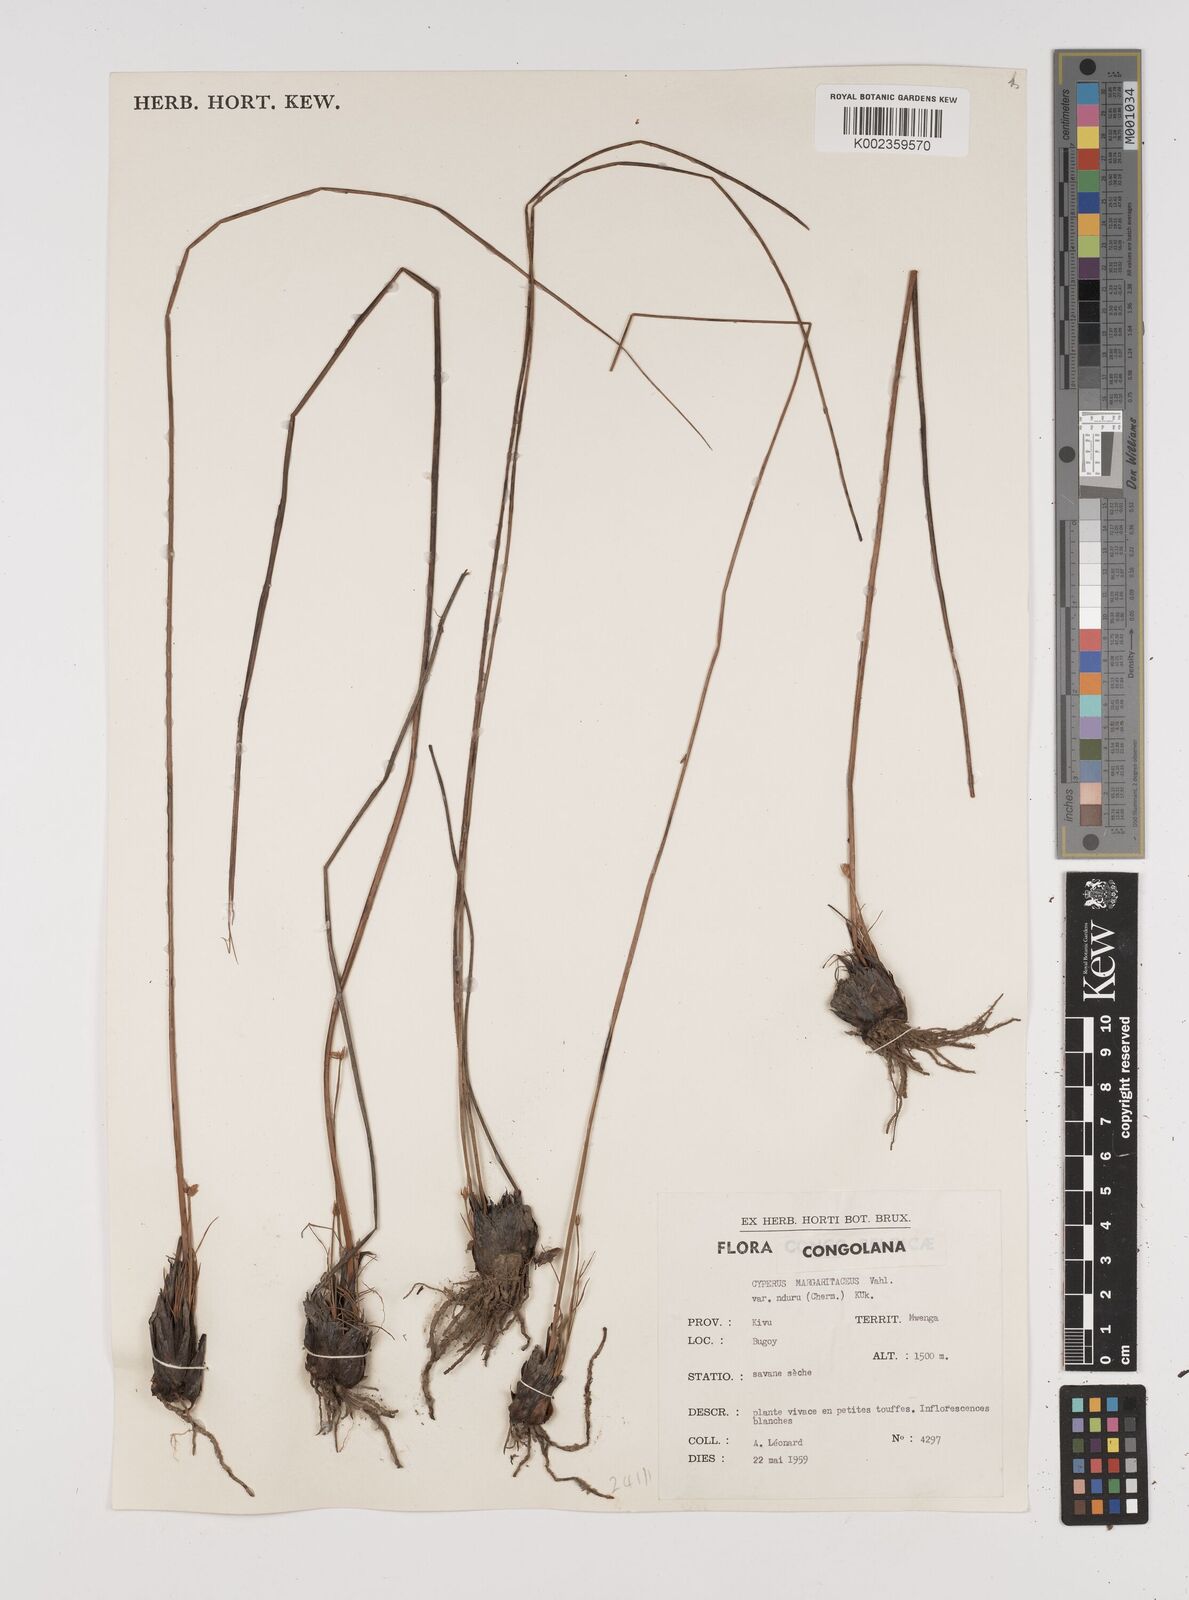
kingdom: Plantae
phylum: Tracheophyta
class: Liliopsida
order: Poales
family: Cyperaceae
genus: Cyperus
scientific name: Cyperus nduru
